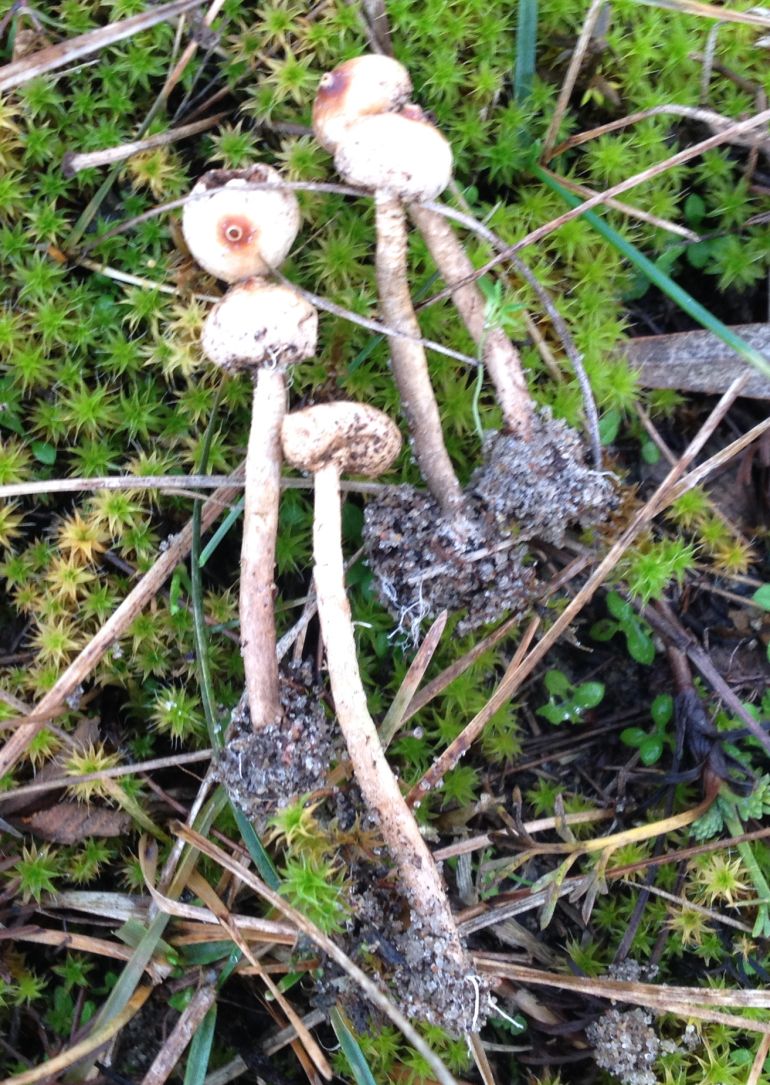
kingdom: Fungi
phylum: Basidiomycota
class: Agaricomycetes
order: Agaricales
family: Agaricaceae
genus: Tulostoma
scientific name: Tulostoma brumale
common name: vinter-stilkbovist
